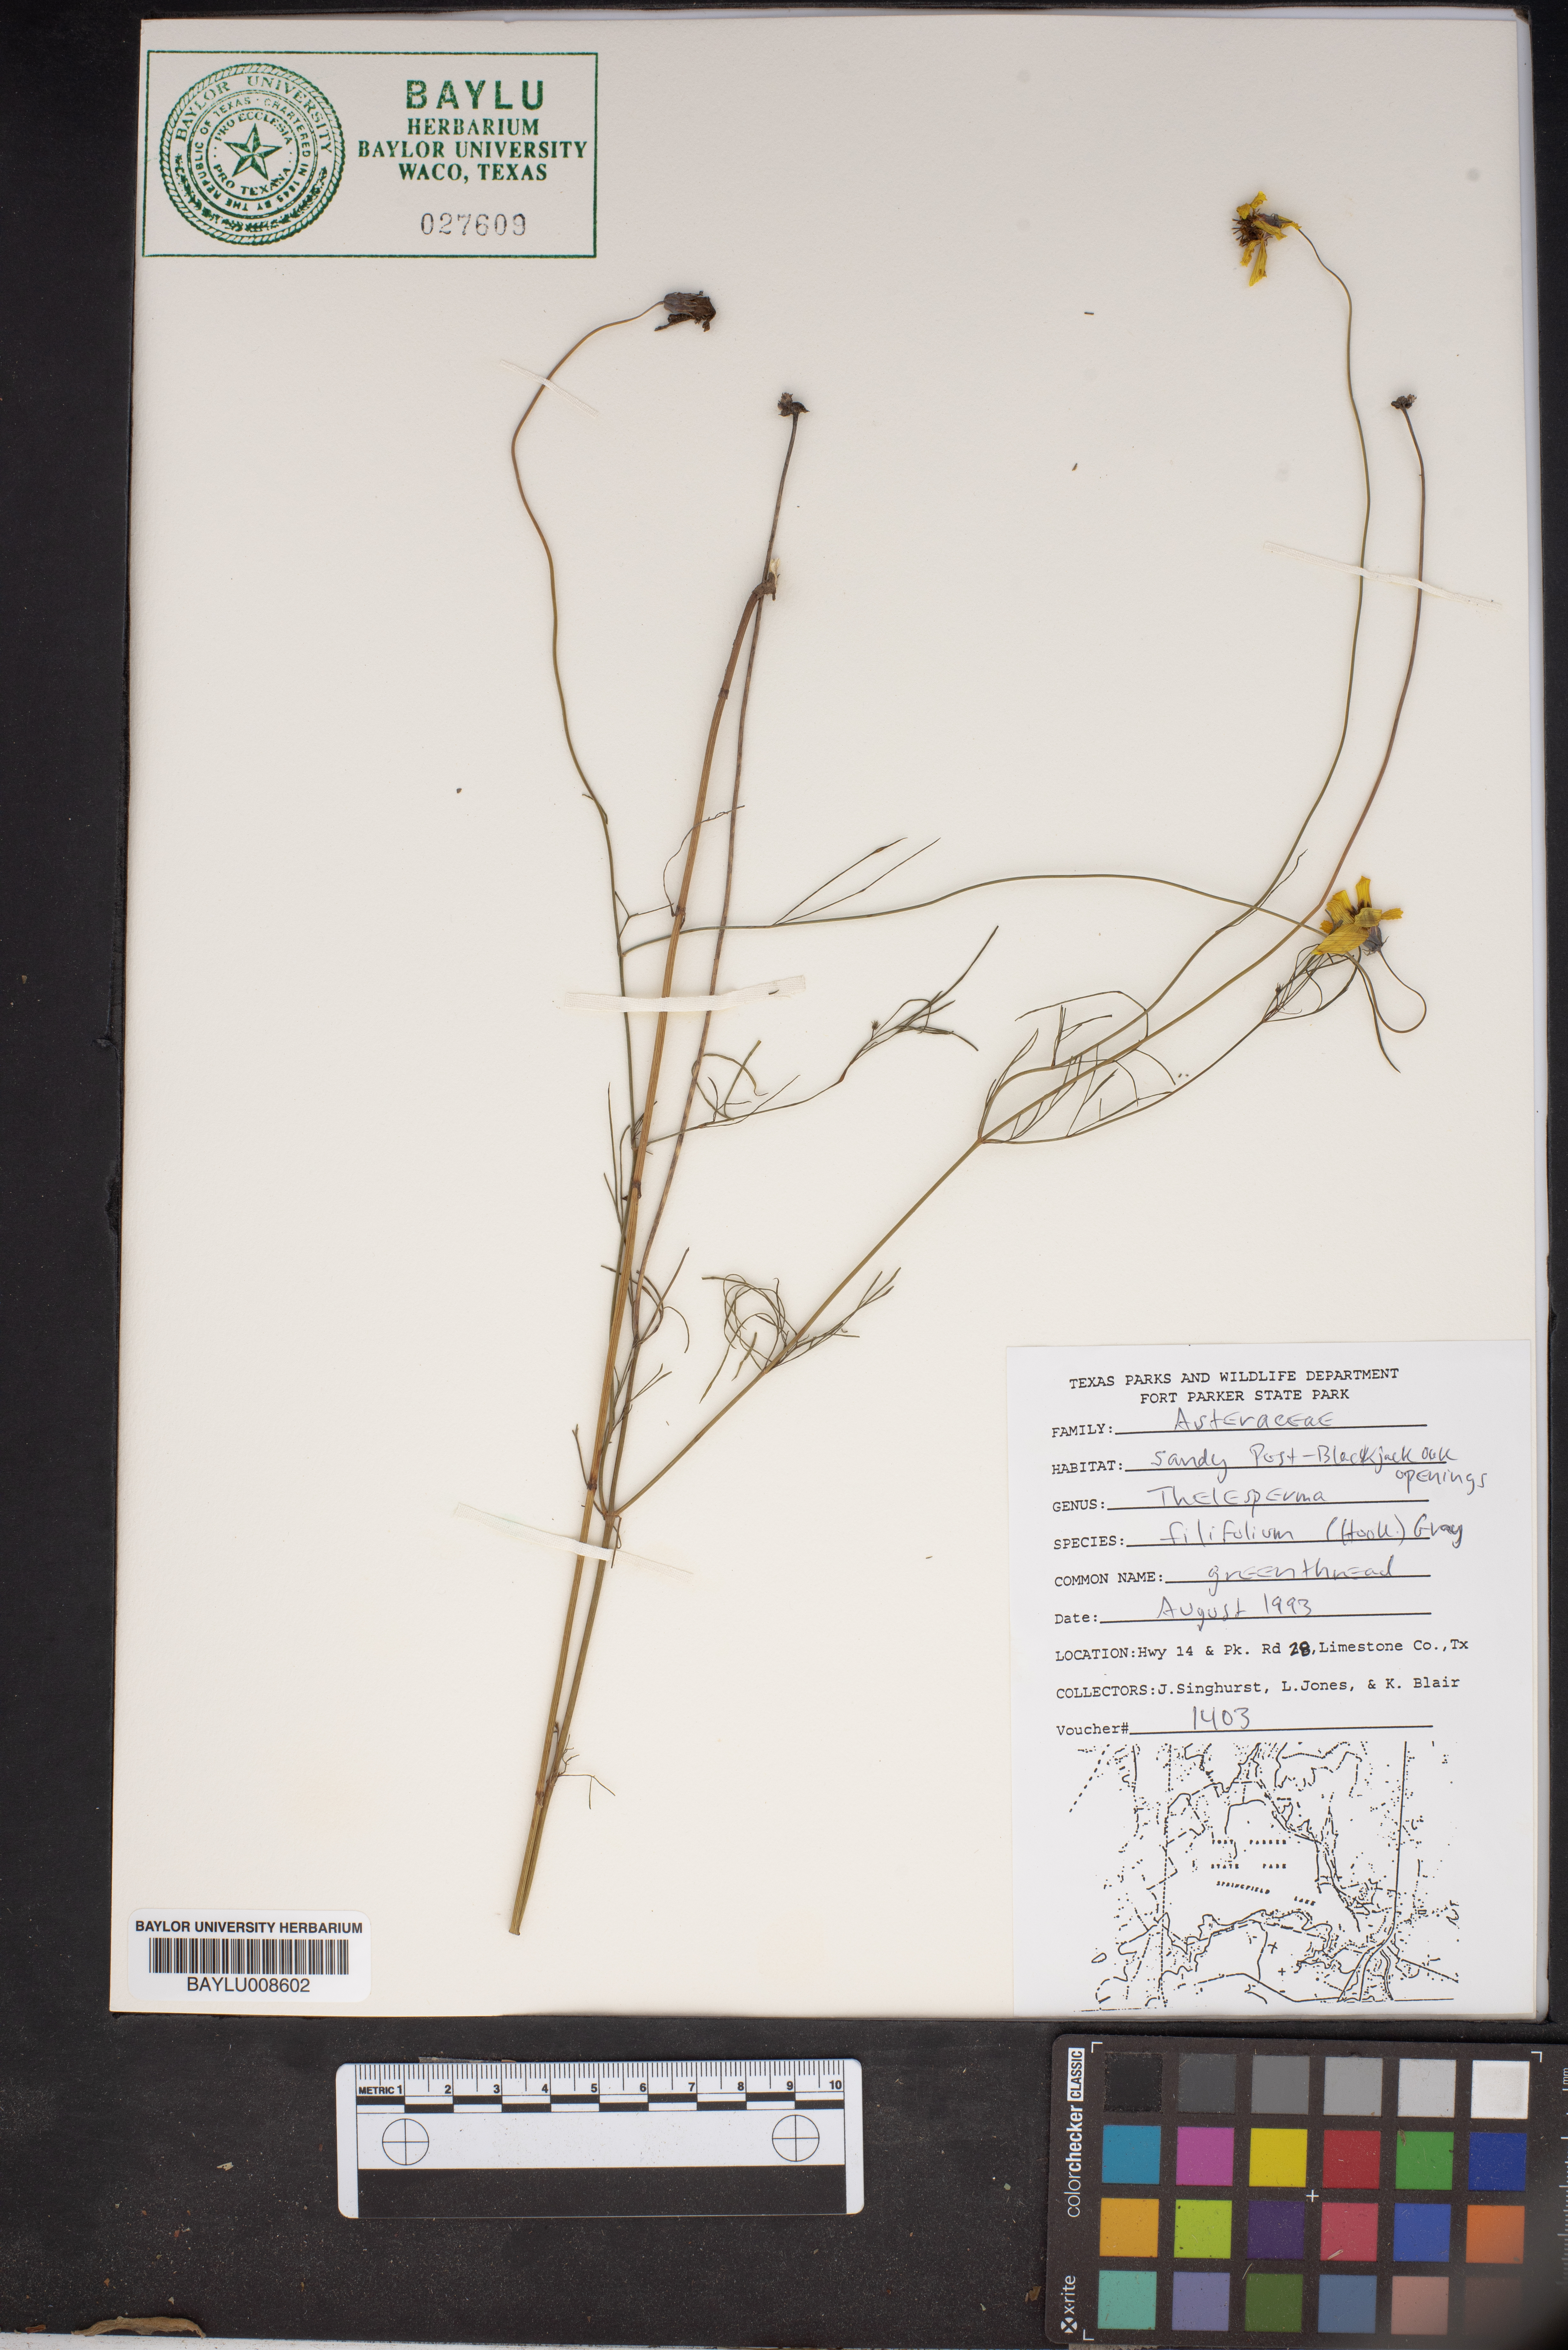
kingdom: Plantae
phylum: Tracheophyta
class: Magnoliopsida
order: Asterales
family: Asteraceae
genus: Thelesperma
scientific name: Thelesperma filifolium
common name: Stiff greenthread
